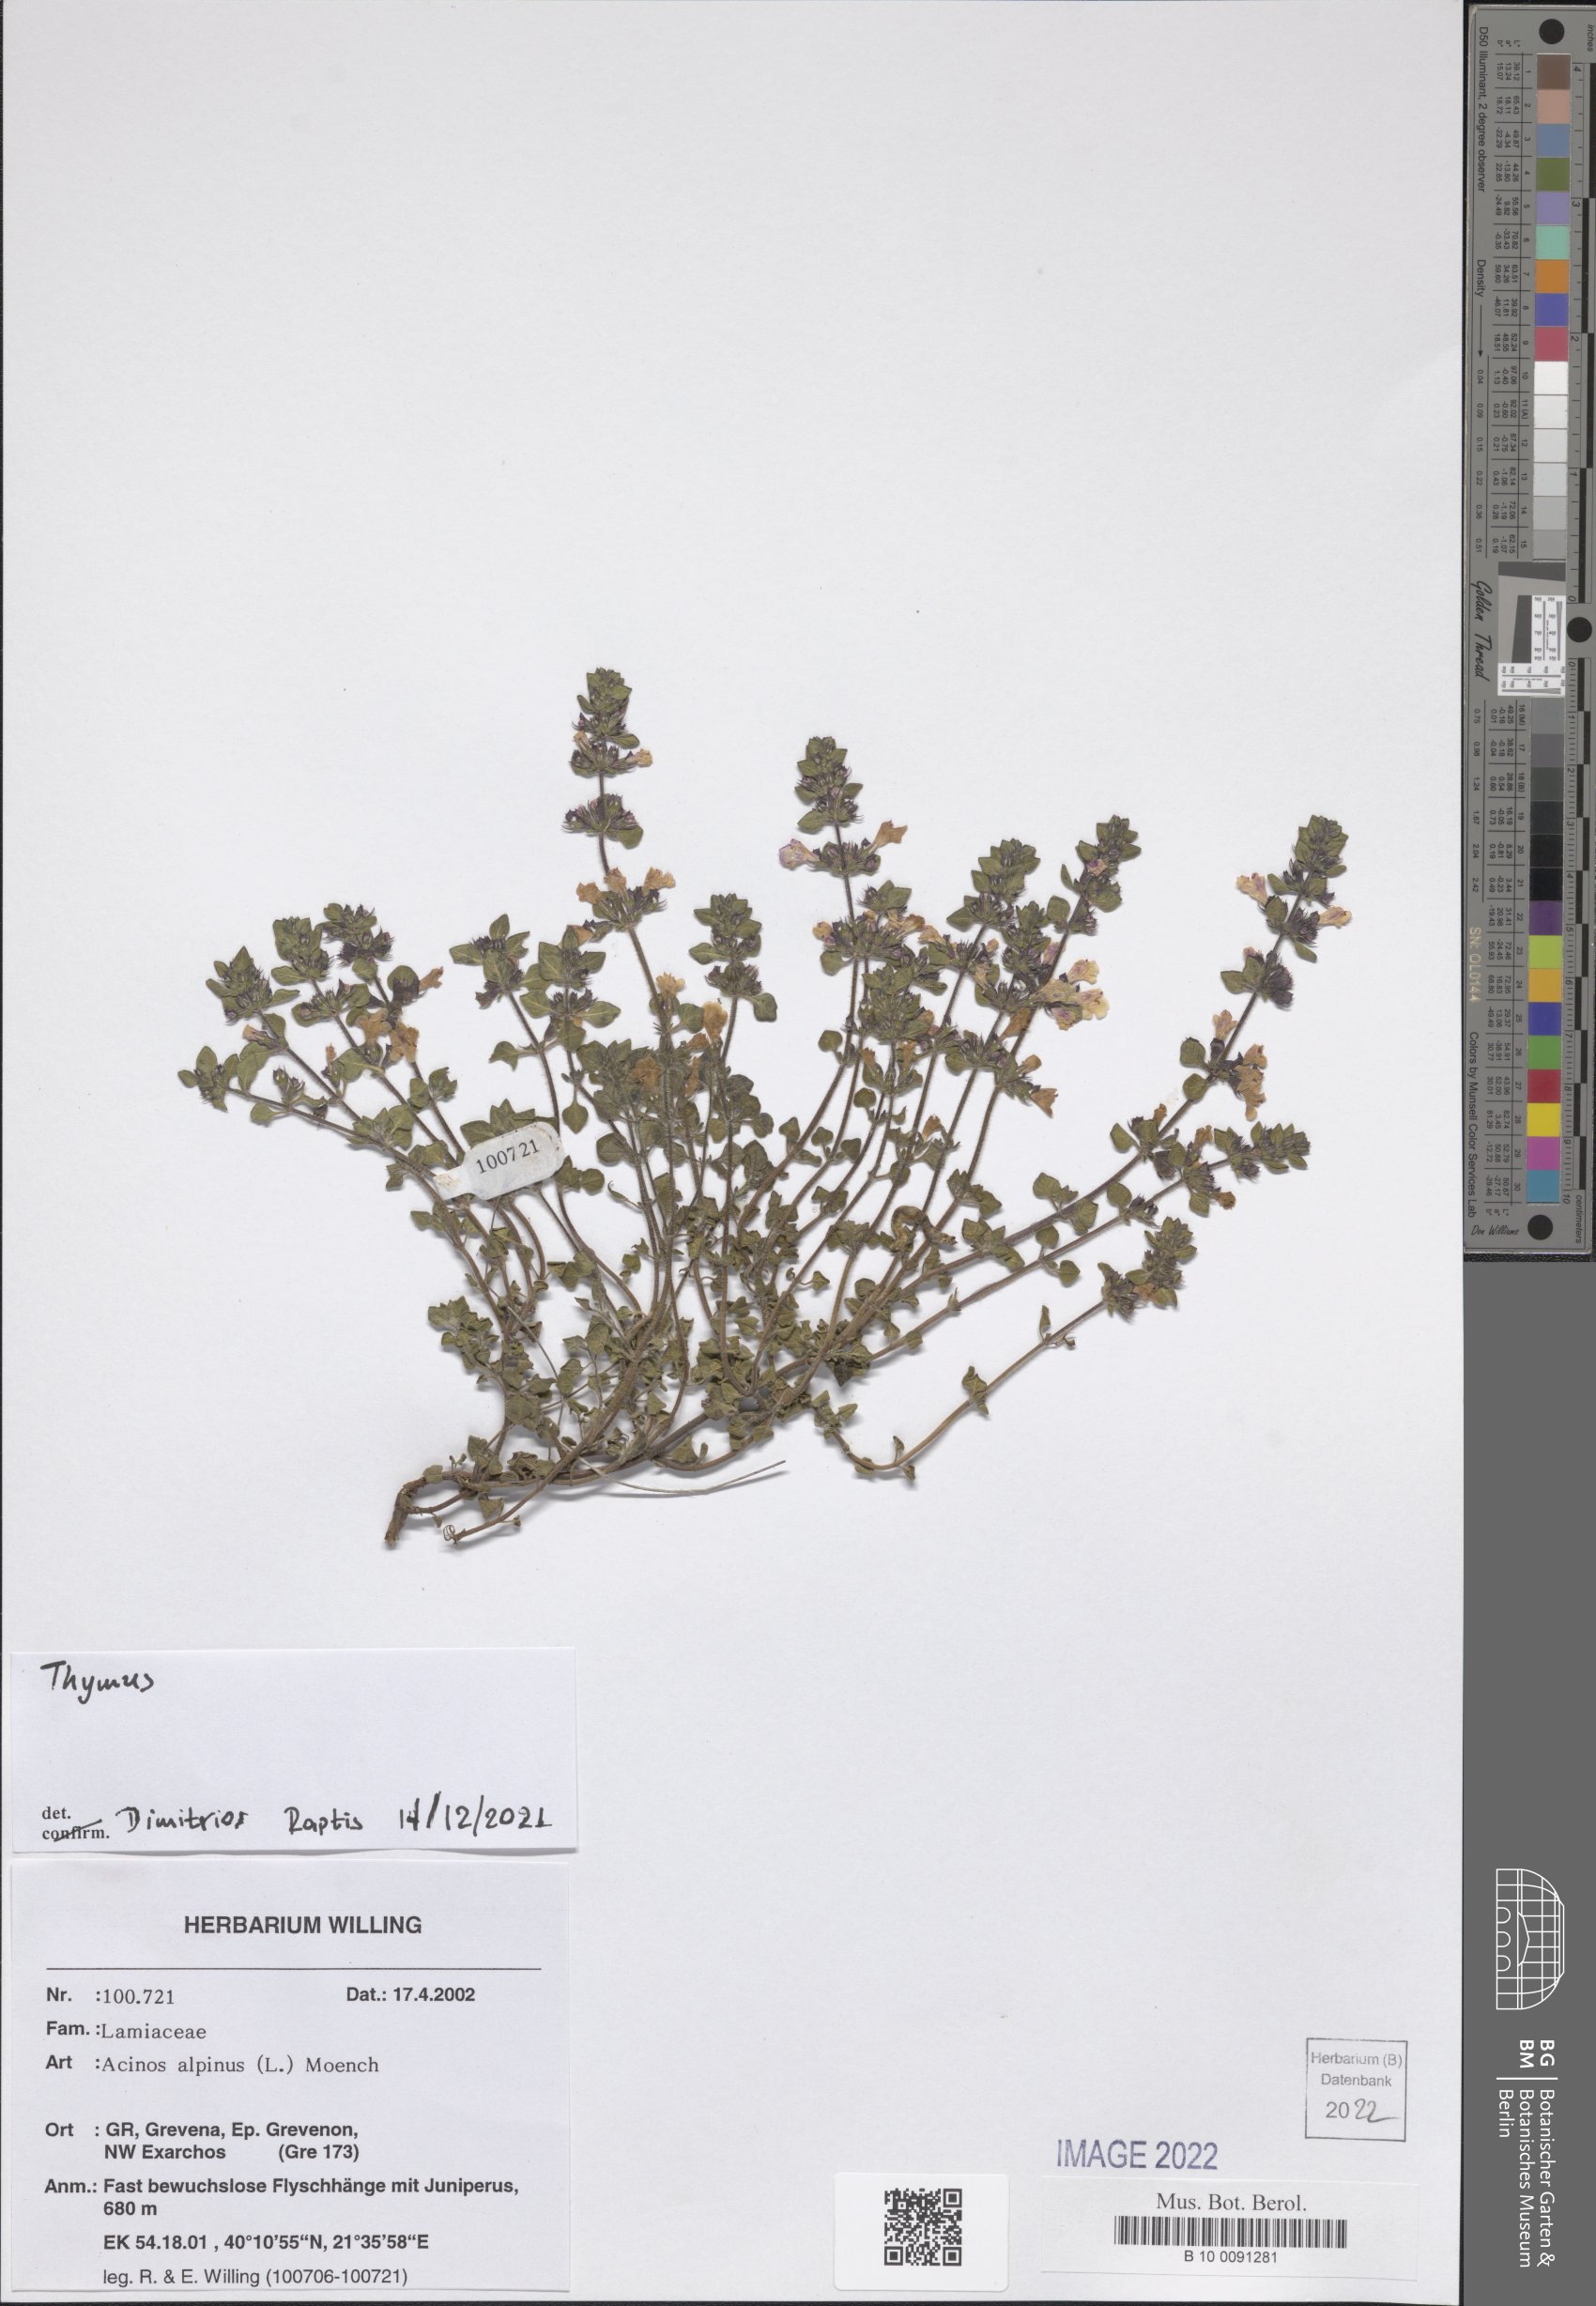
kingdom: Plantae
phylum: Tracheophyta
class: Magnoliopsida
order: Lamiales
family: Lamiaceae
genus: Thymus
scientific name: Thymus
